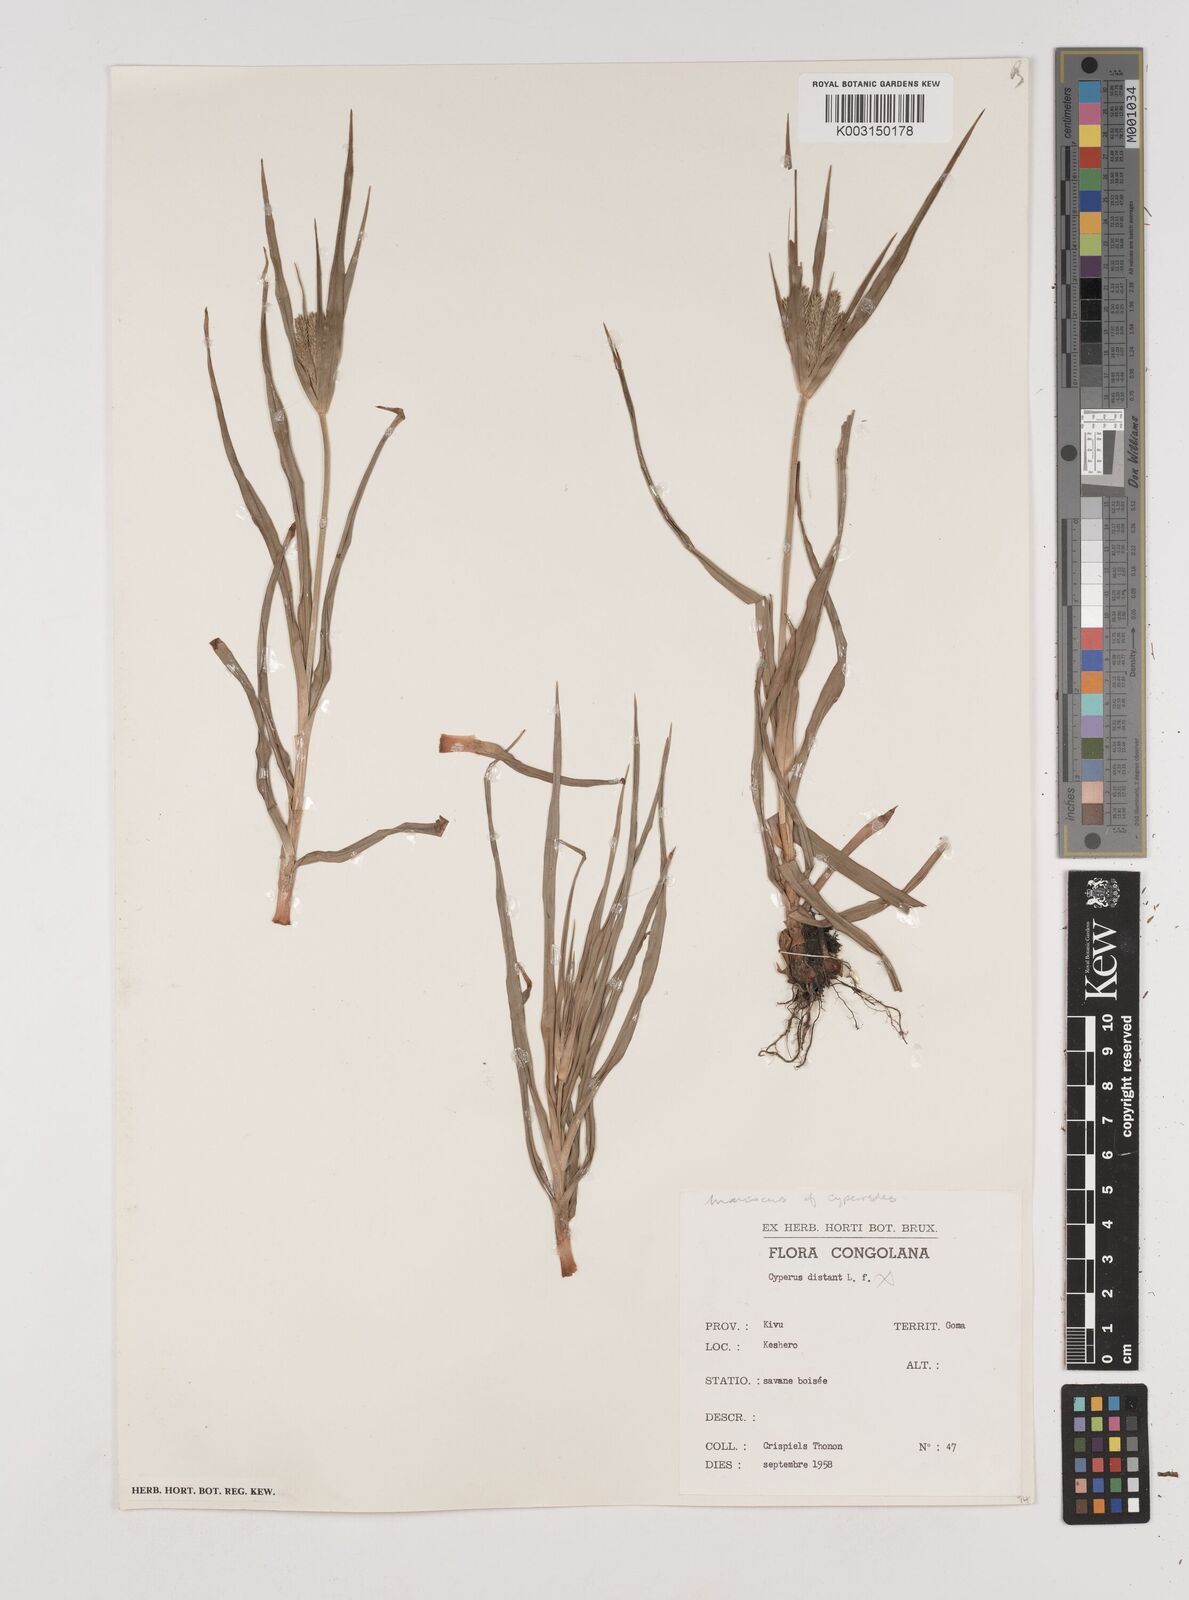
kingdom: Plantae
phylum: Tracheophyta
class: Liliopsida
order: Poales
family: Cyperaceae
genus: Cyperus
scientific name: Cyperus
